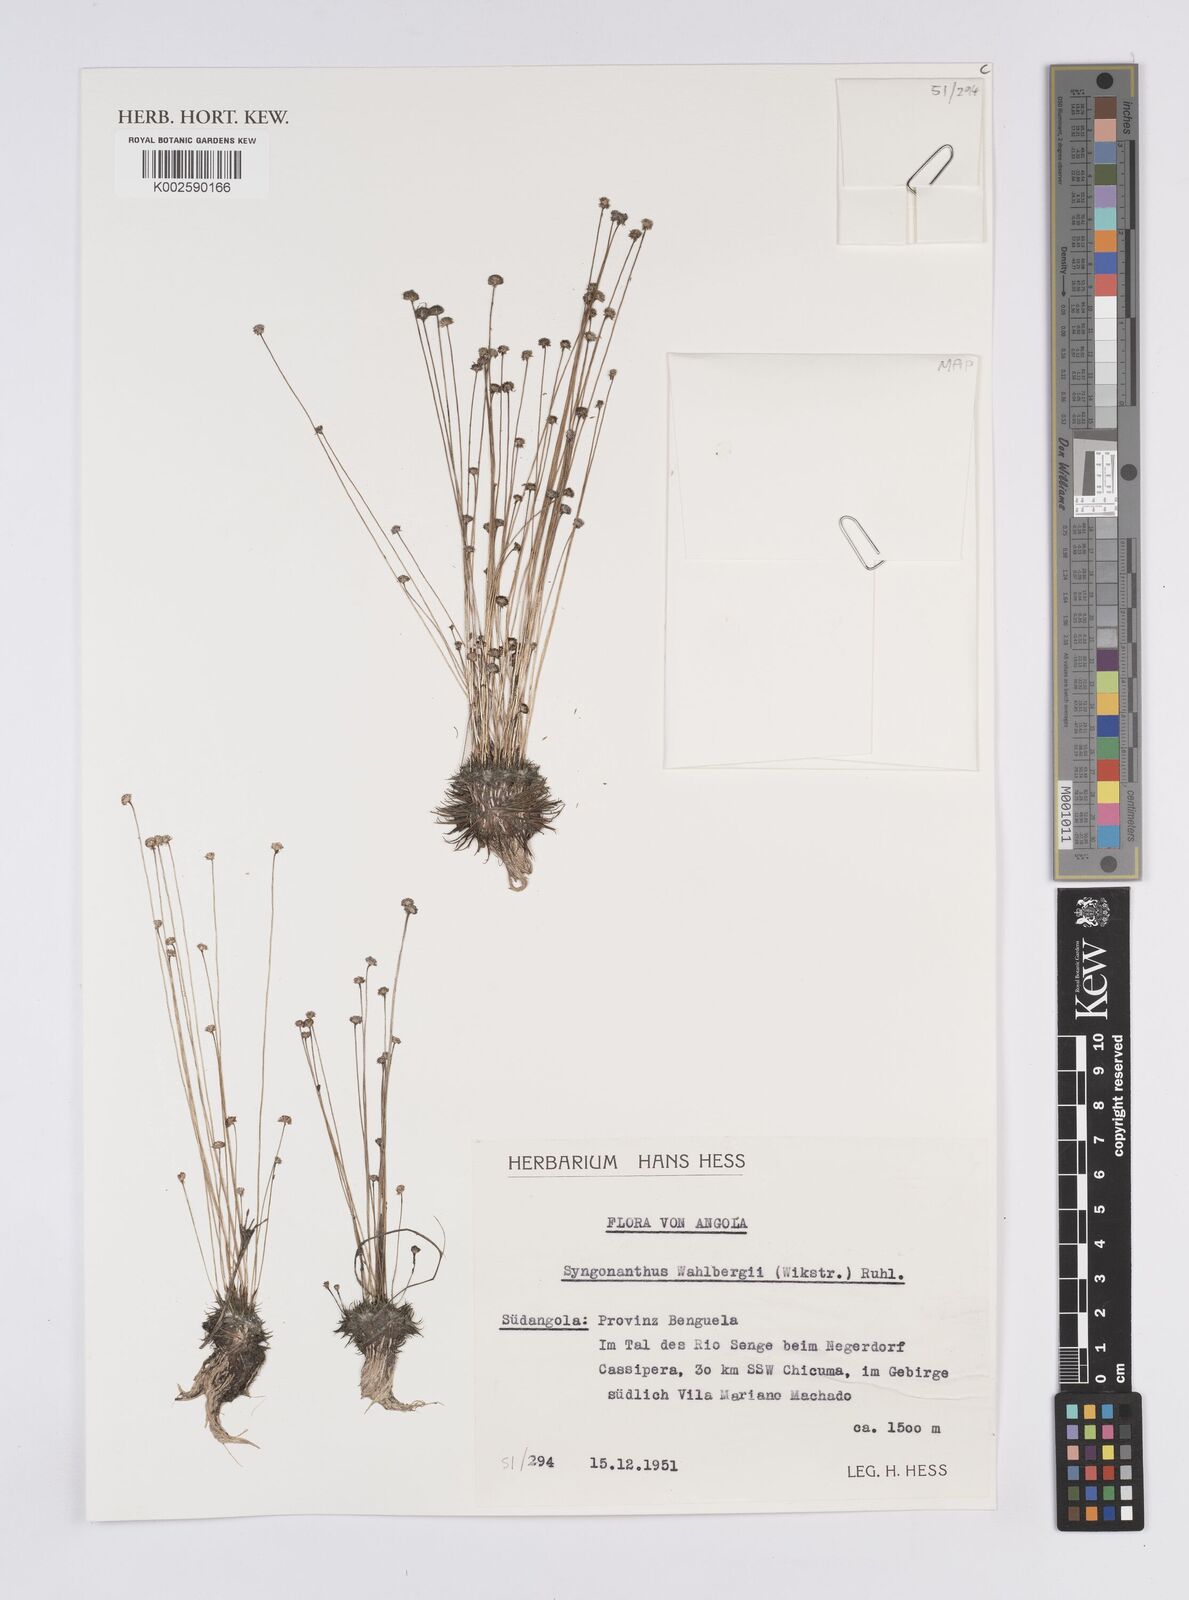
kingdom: Plantae
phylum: Tracheophyta
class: Liliopsida
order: Poales
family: Eriocaulaceae
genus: Syngonanthus
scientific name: Syngonanthus wahlbergii
